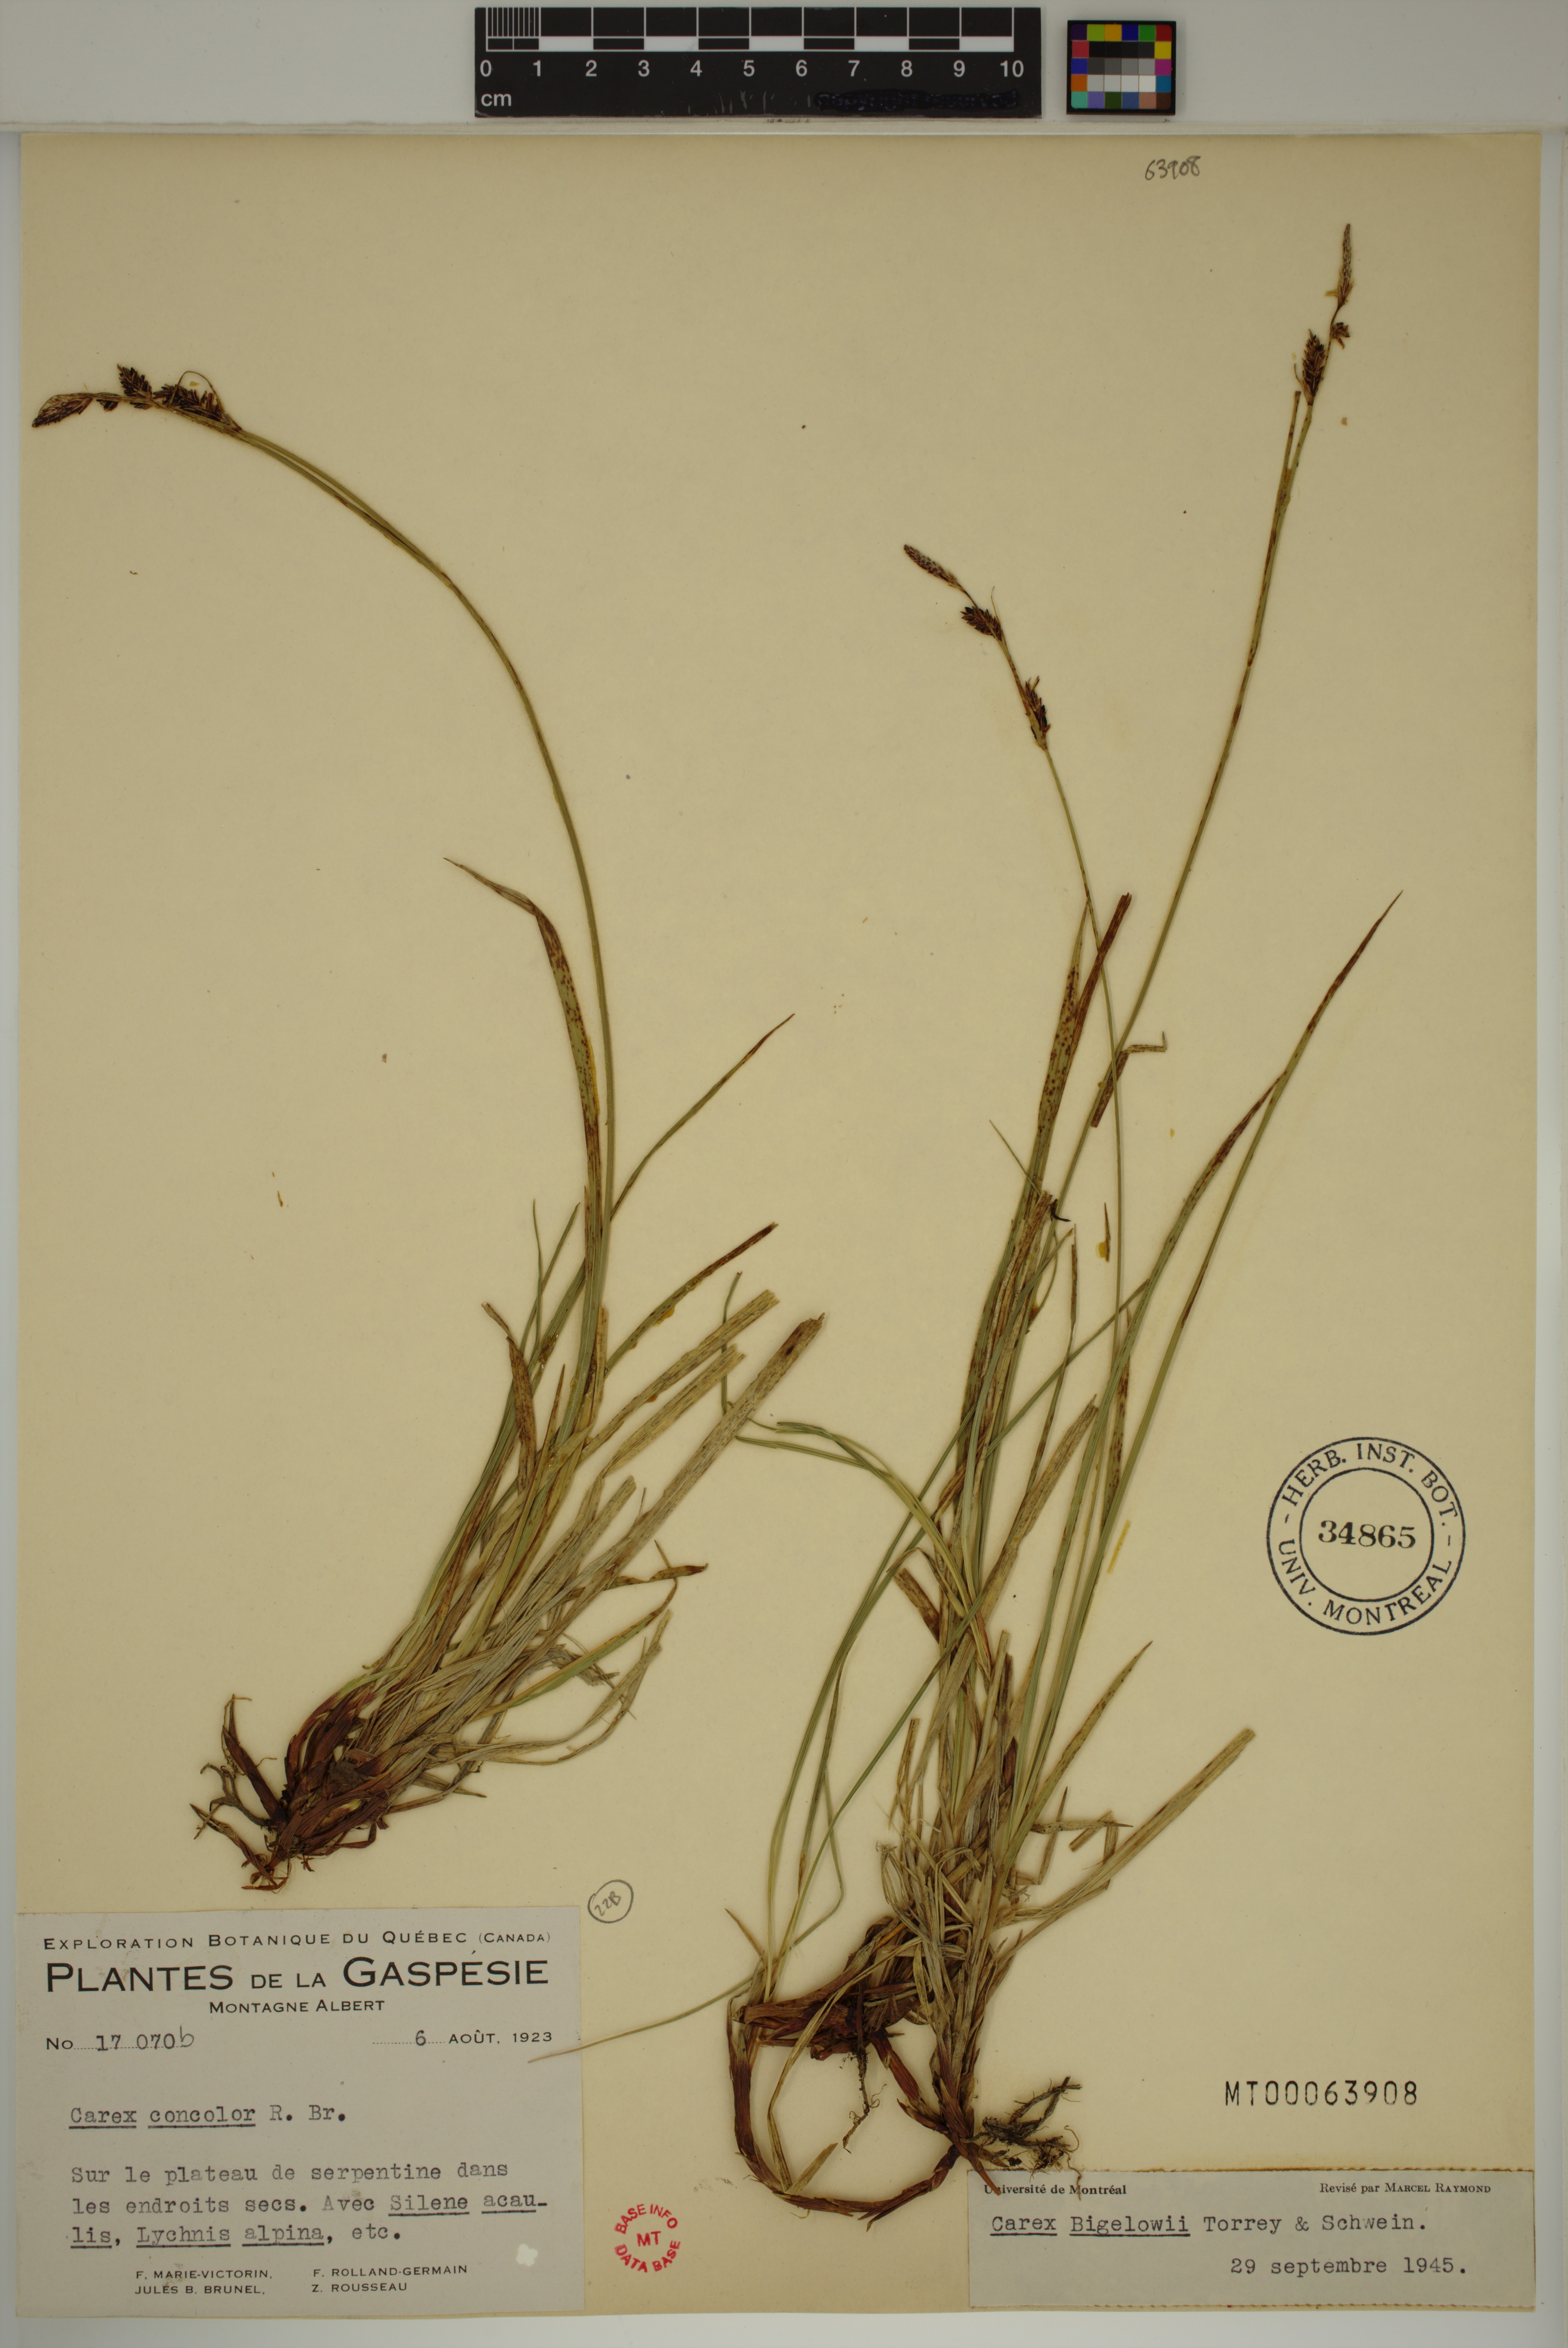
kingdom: Plantae
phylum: Tracheophyta
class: Liliopsida
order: Poales
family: Cyperaceae
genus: Carex
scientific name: Carex bigelowii
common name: Stiff sedge
